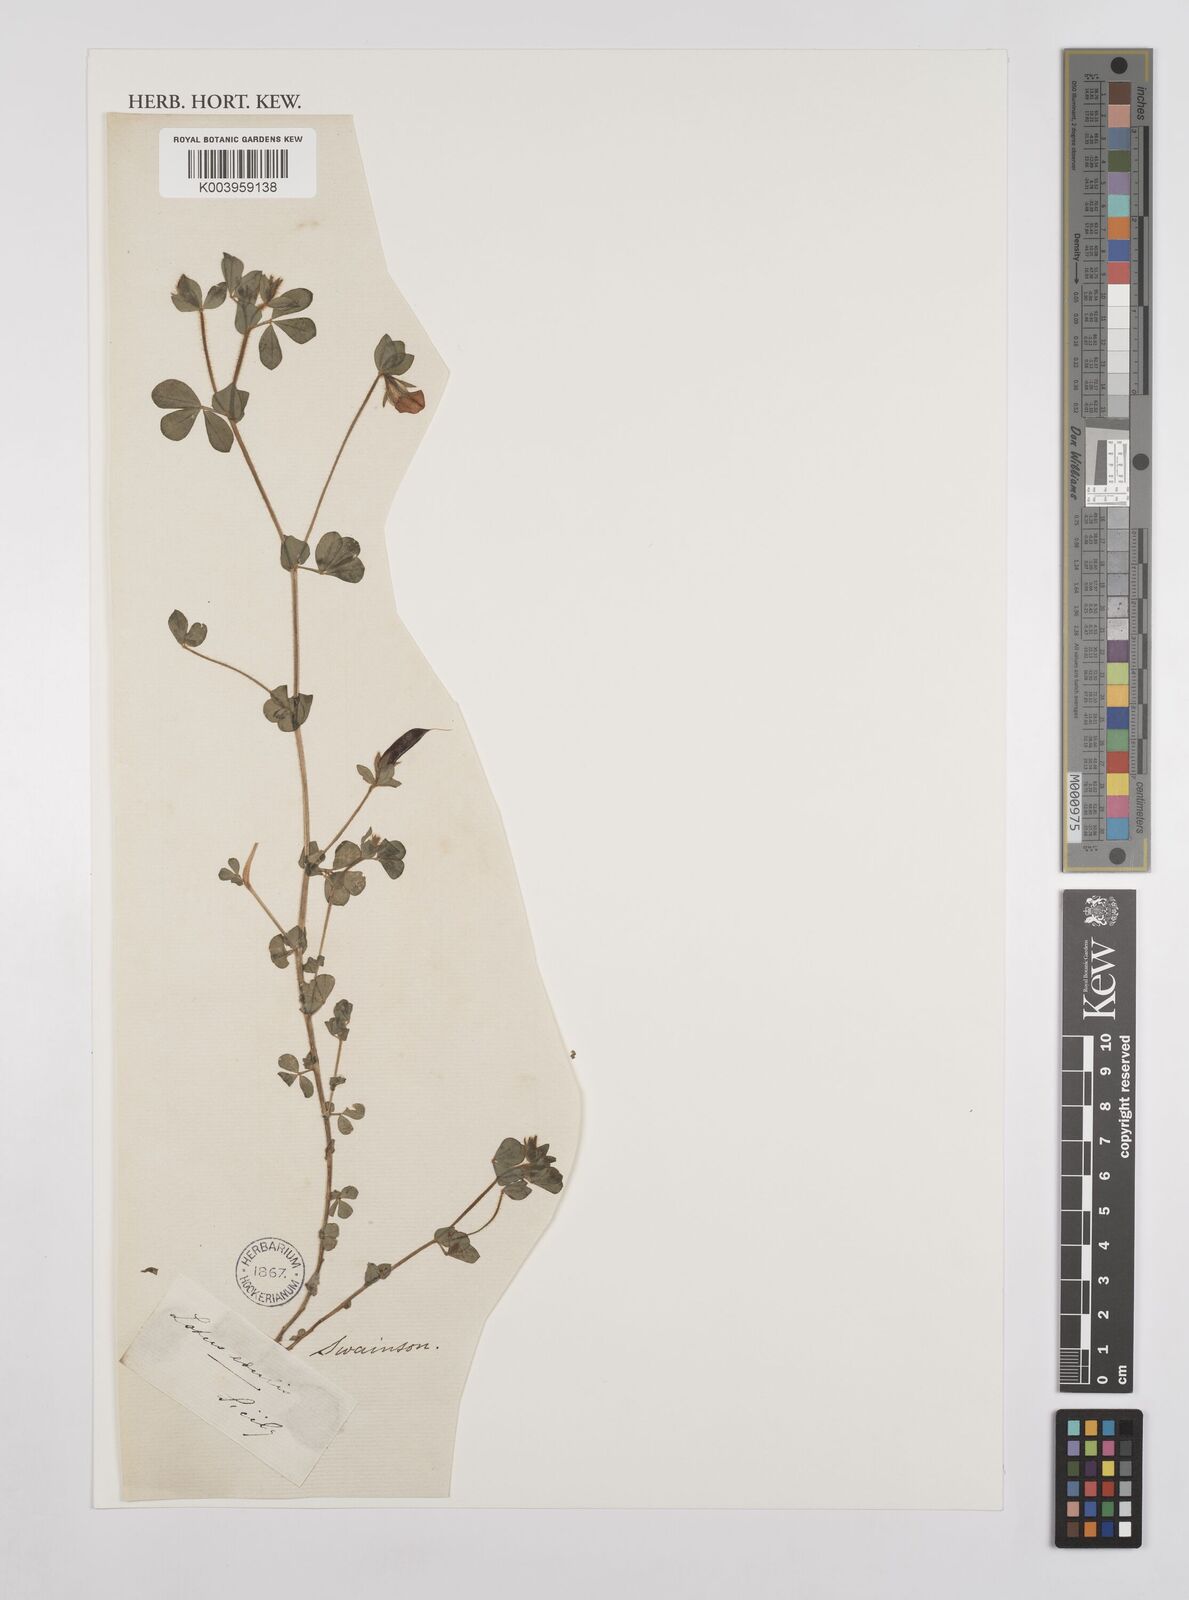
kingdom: Plantae
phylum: Tracheophyta
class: Magnoliopsida
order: Fabales
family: Fabaceae
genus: Lotus
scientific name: Lotus edulis
